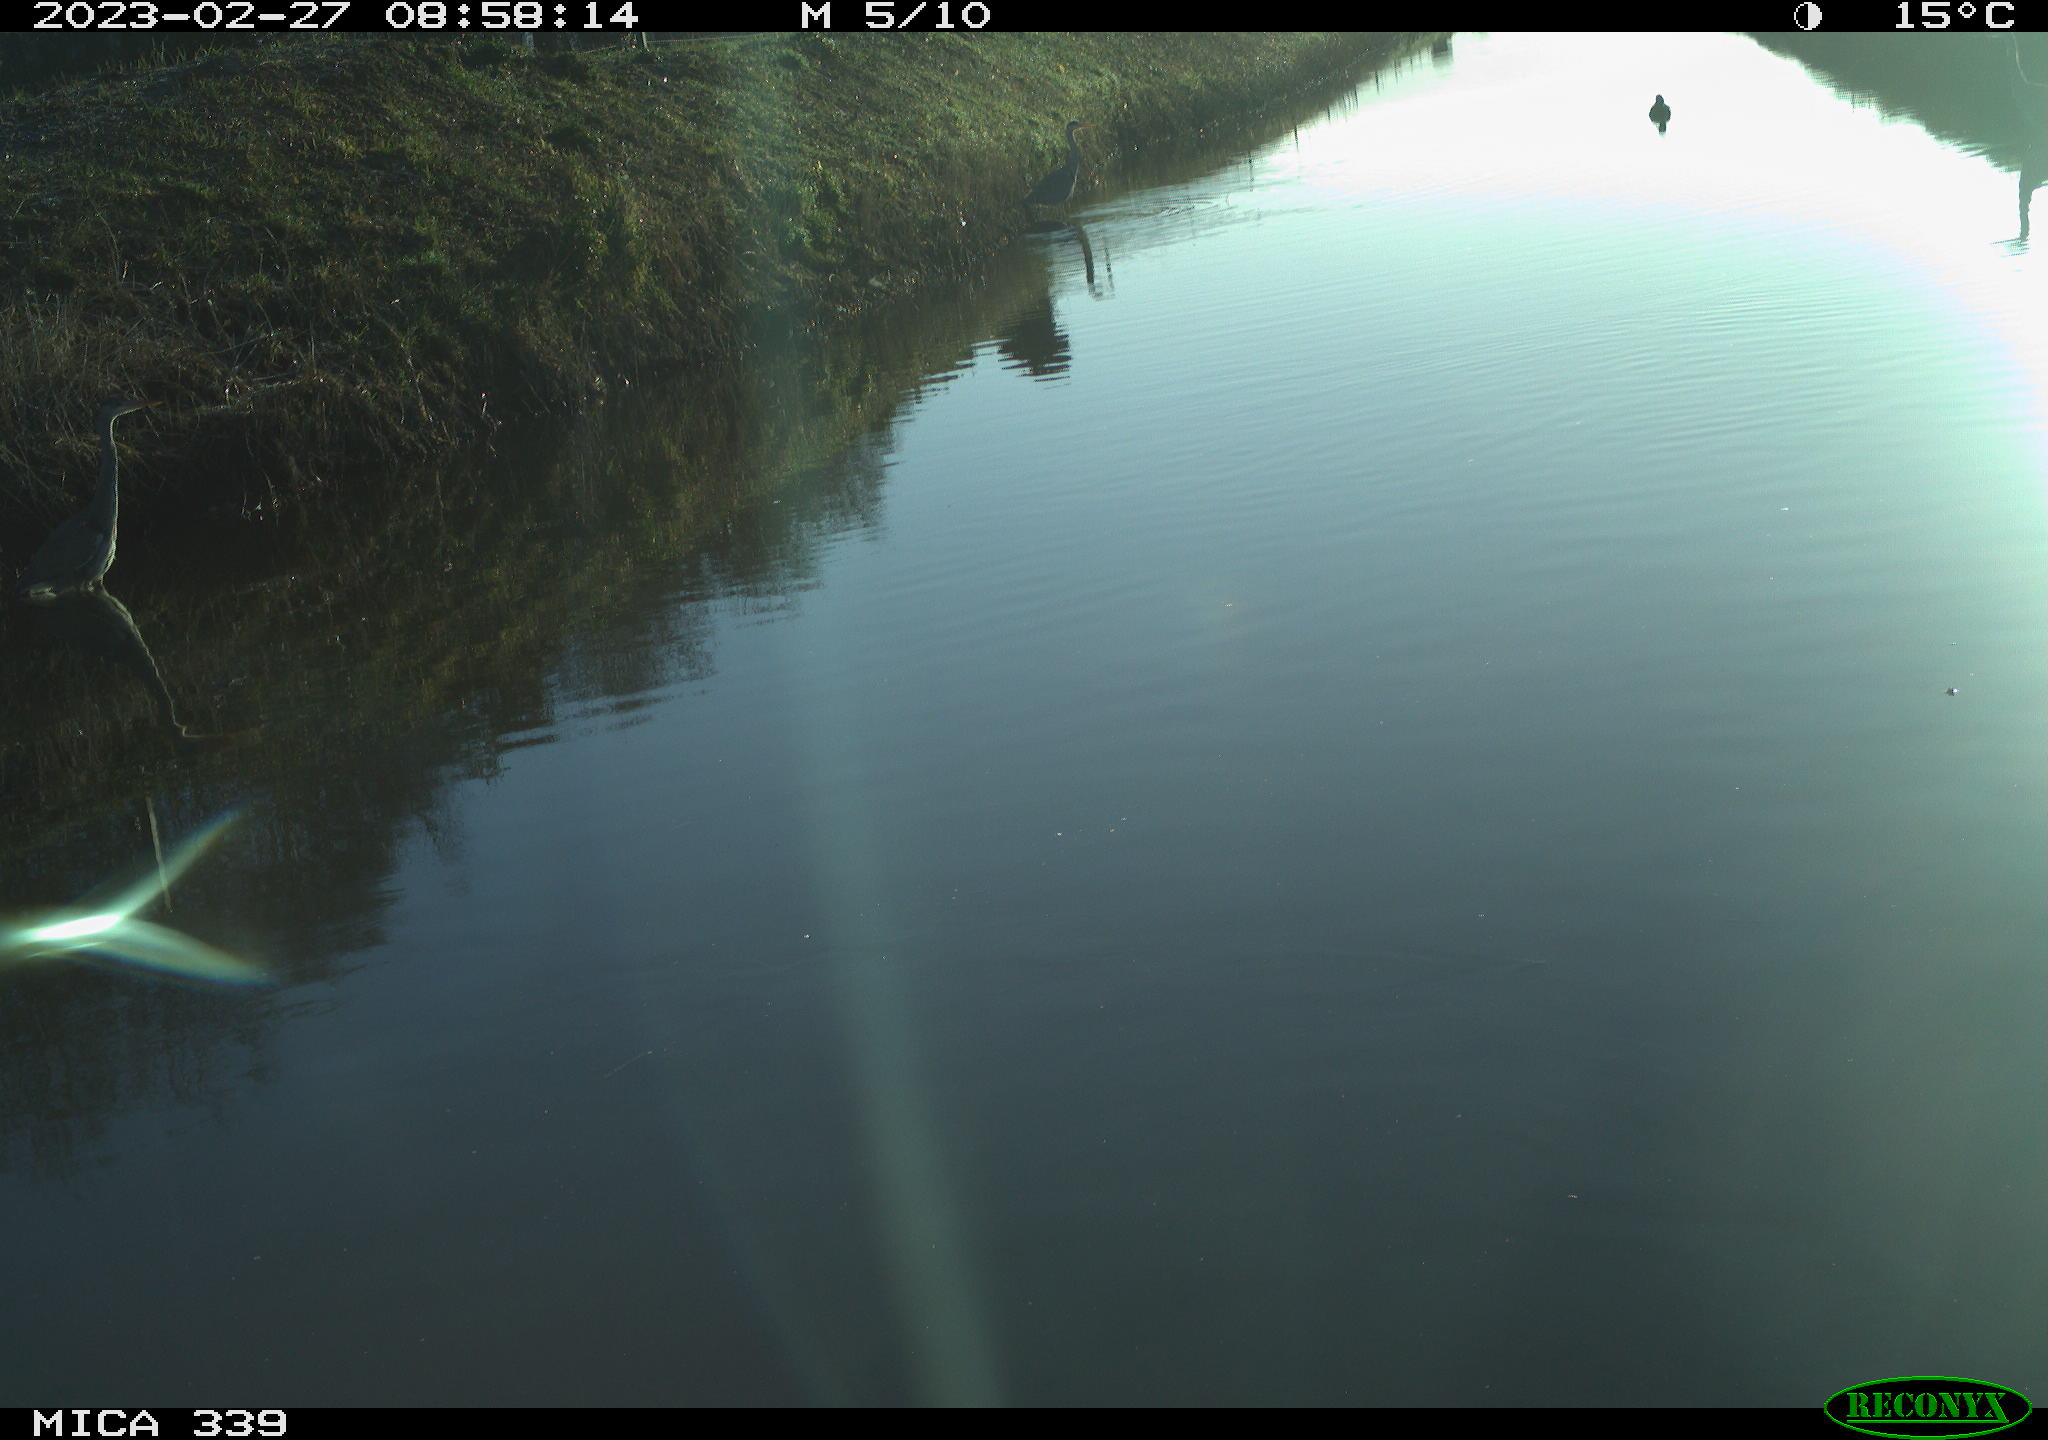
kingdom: Animalia
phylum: Chordata
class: Aves
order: Pelecaniformes
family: Ardeidae
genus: Ardea
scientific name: Ardea cinerea
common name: Grey heron
